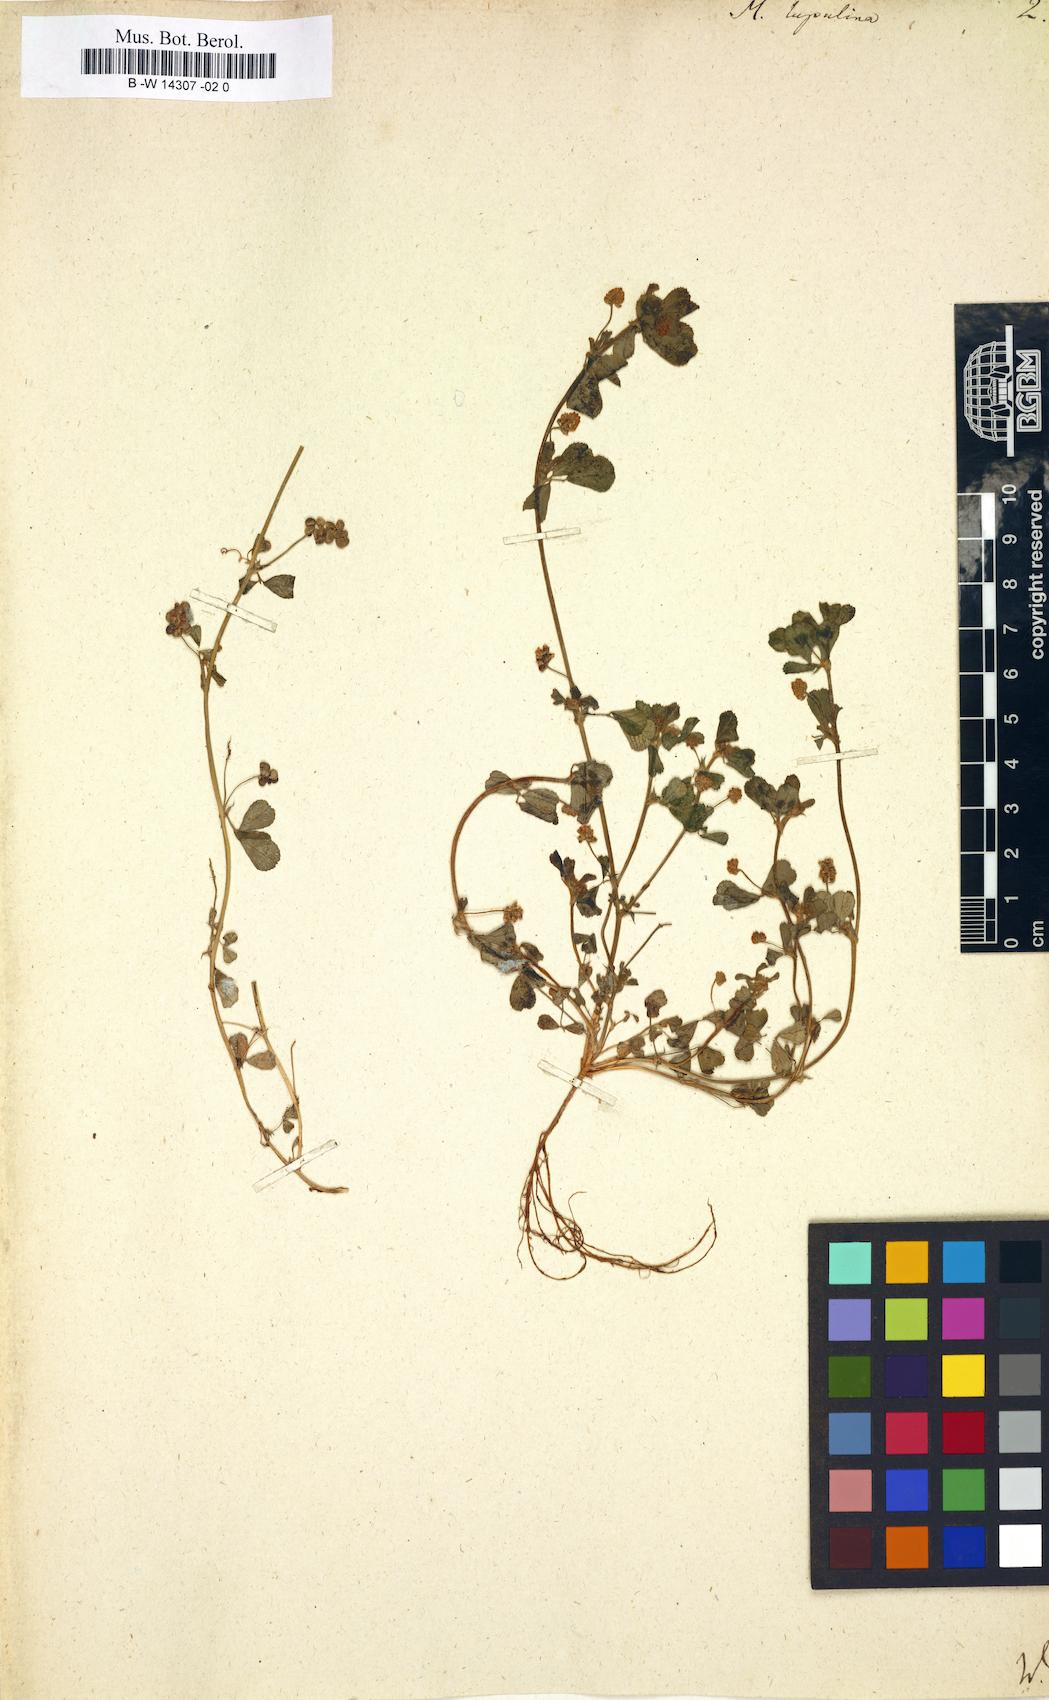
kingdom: Plantae
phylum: Tracheophyta
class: Magnoliopsida
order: Fabales
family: Fabaceae
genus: Medicago
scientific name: Medicago lupulina
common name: Black medick
